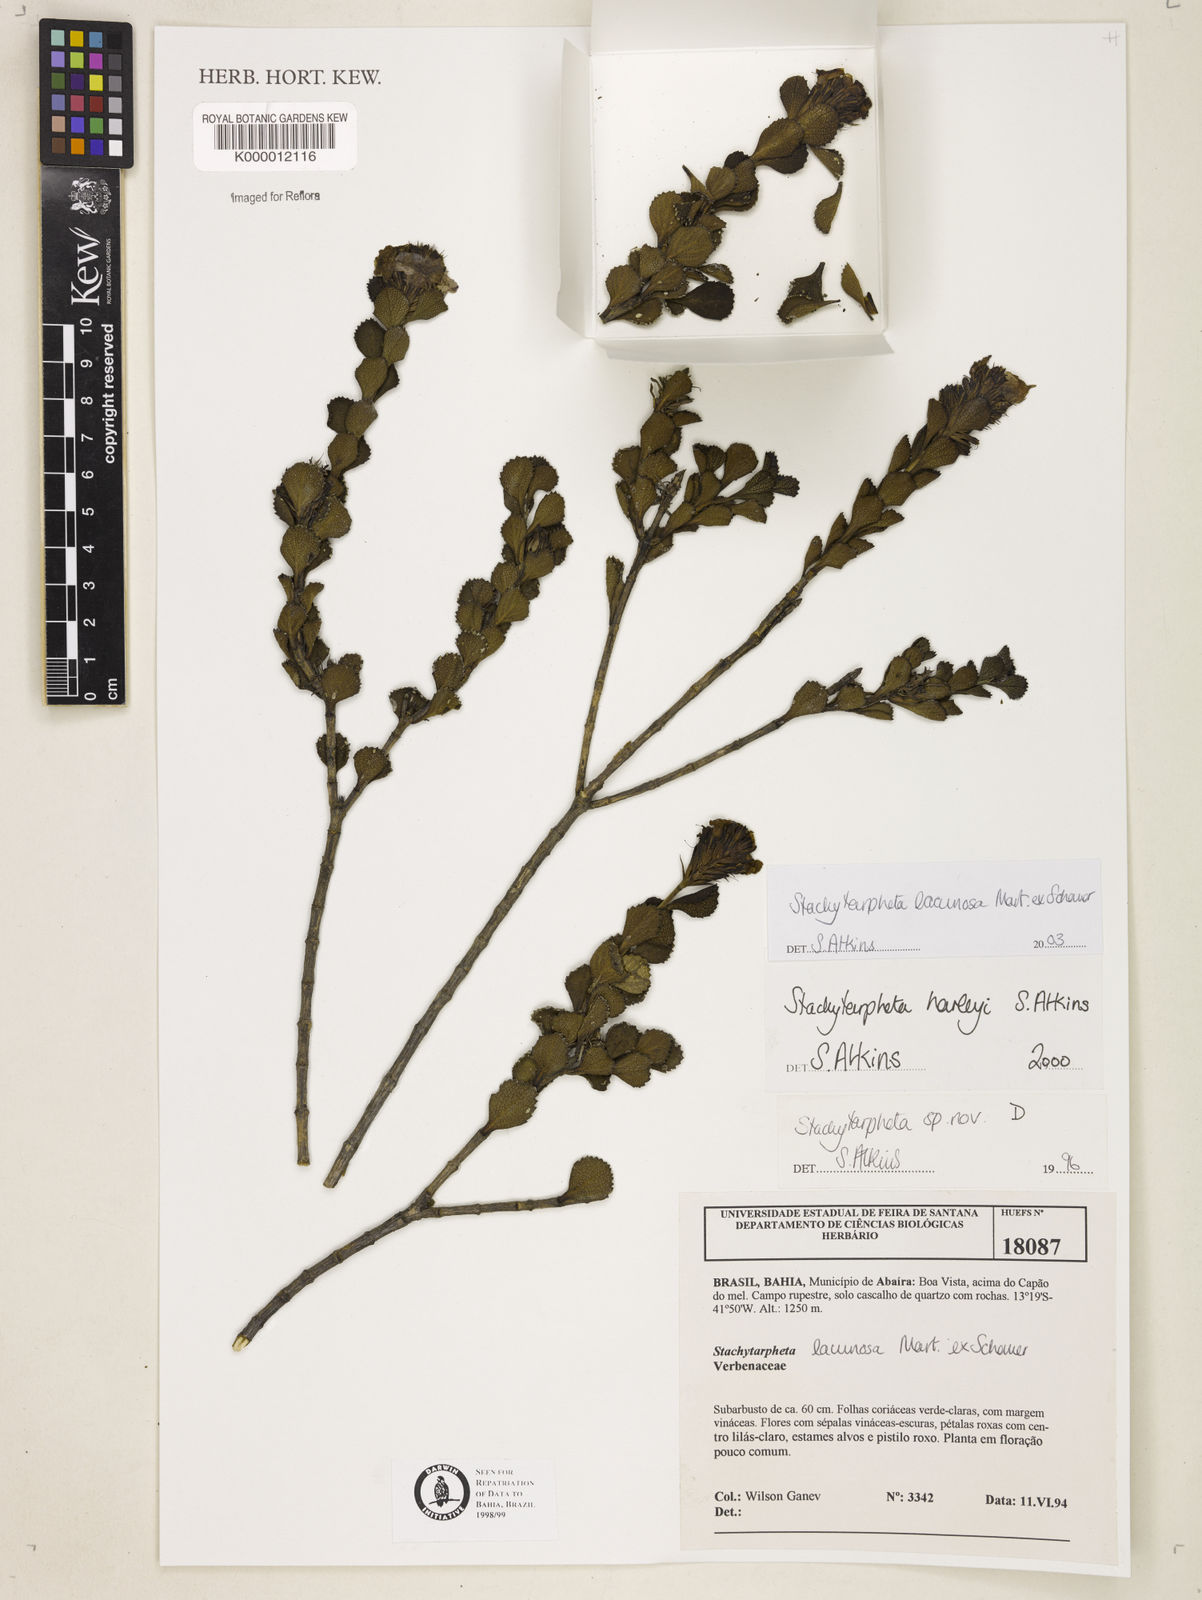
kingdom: Plantae
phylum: Tracheophyta
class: Magnoliopsida
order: Lamiales
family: Verbenaceae
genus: Stachytarpheta
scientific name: Stachytarpheta harleyi
